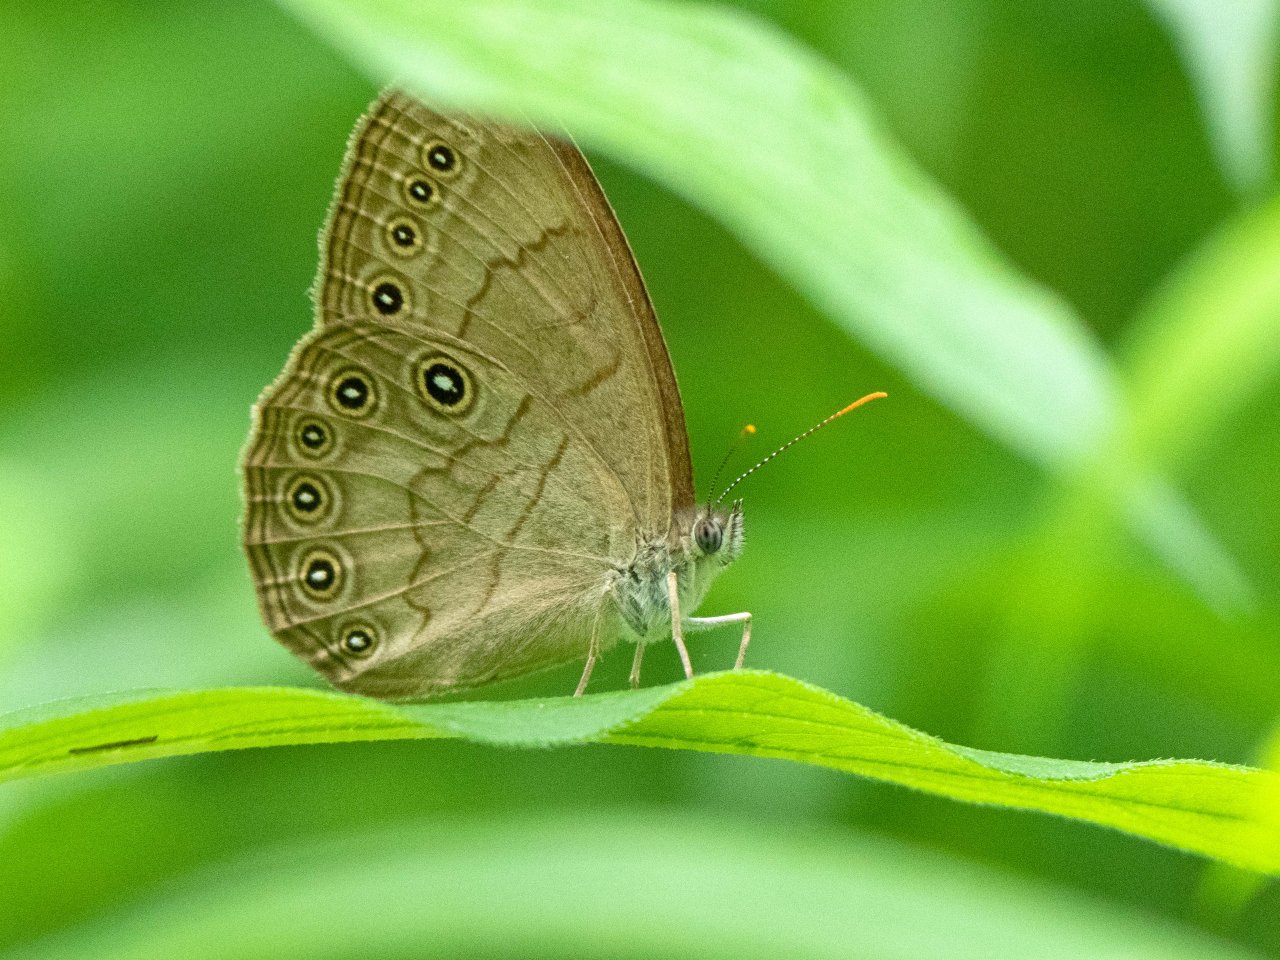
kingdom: Animalia
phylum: Arthropoda
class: Insecta
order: Lepidoptera
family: Nymphalidae
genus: Lethe
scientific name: Lethe eurydice
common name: Appalachian Eyed Brown
